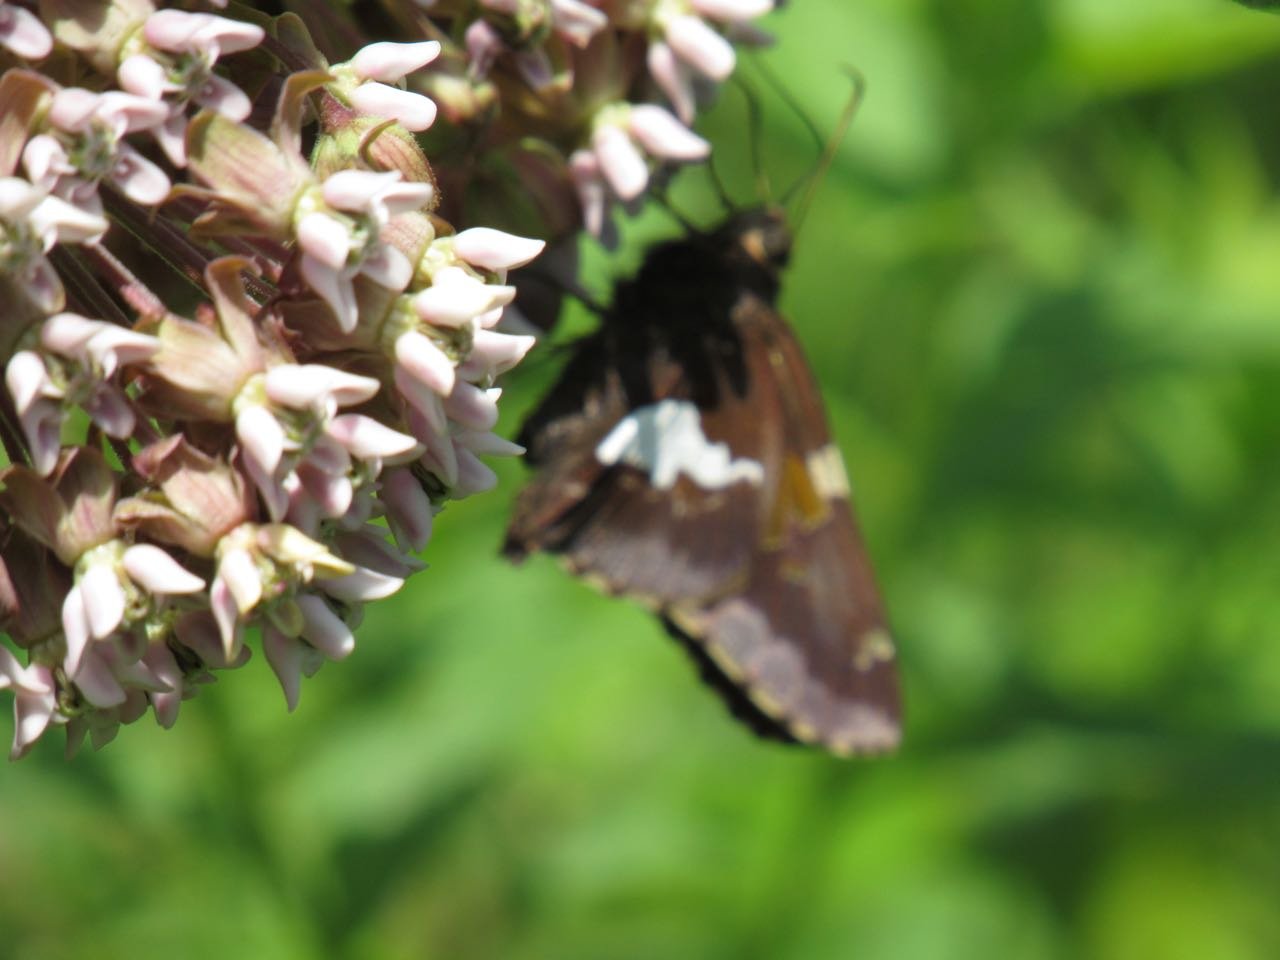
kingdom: Animalia
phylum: Arthropoda
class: Insecta
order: Lepidoptera
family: Hesperiidae
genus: Epargyreus
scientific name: Epargyreus clarus
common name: Silver-spotted Skipper
